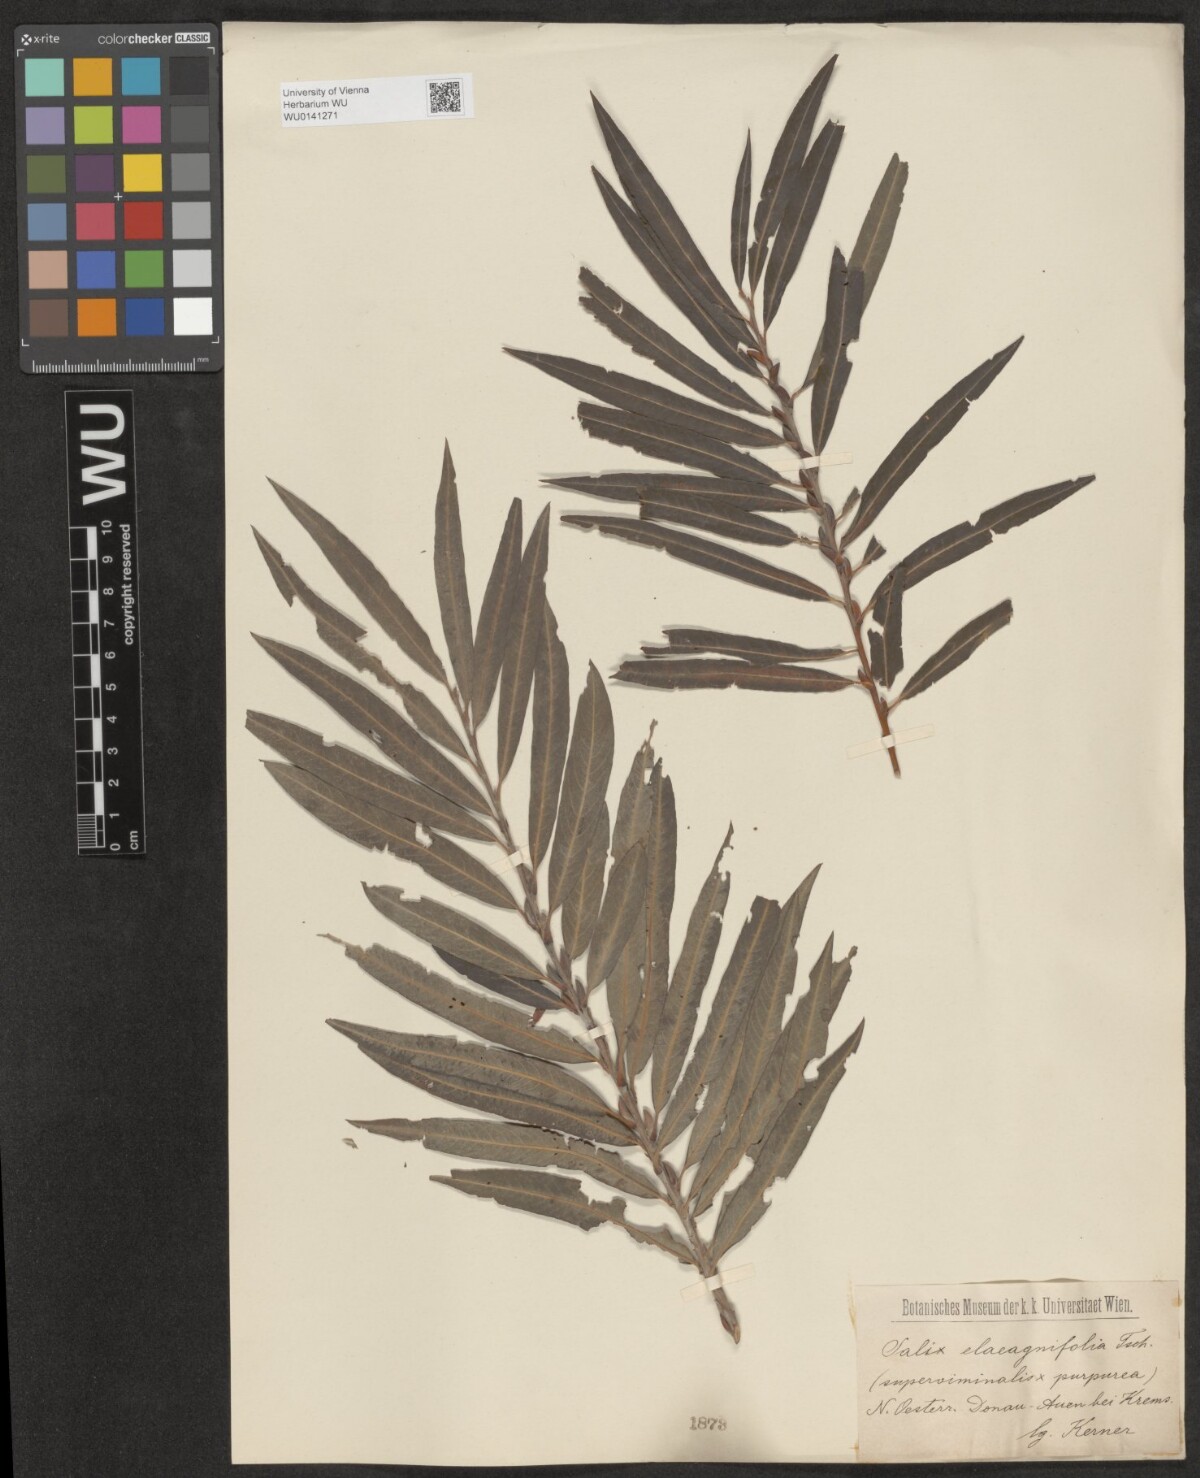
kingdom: Plantae
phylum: Tracheophyta
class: Magnoliopsida
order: Malpighiales
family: Salicaceae
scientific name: Salicaceae
